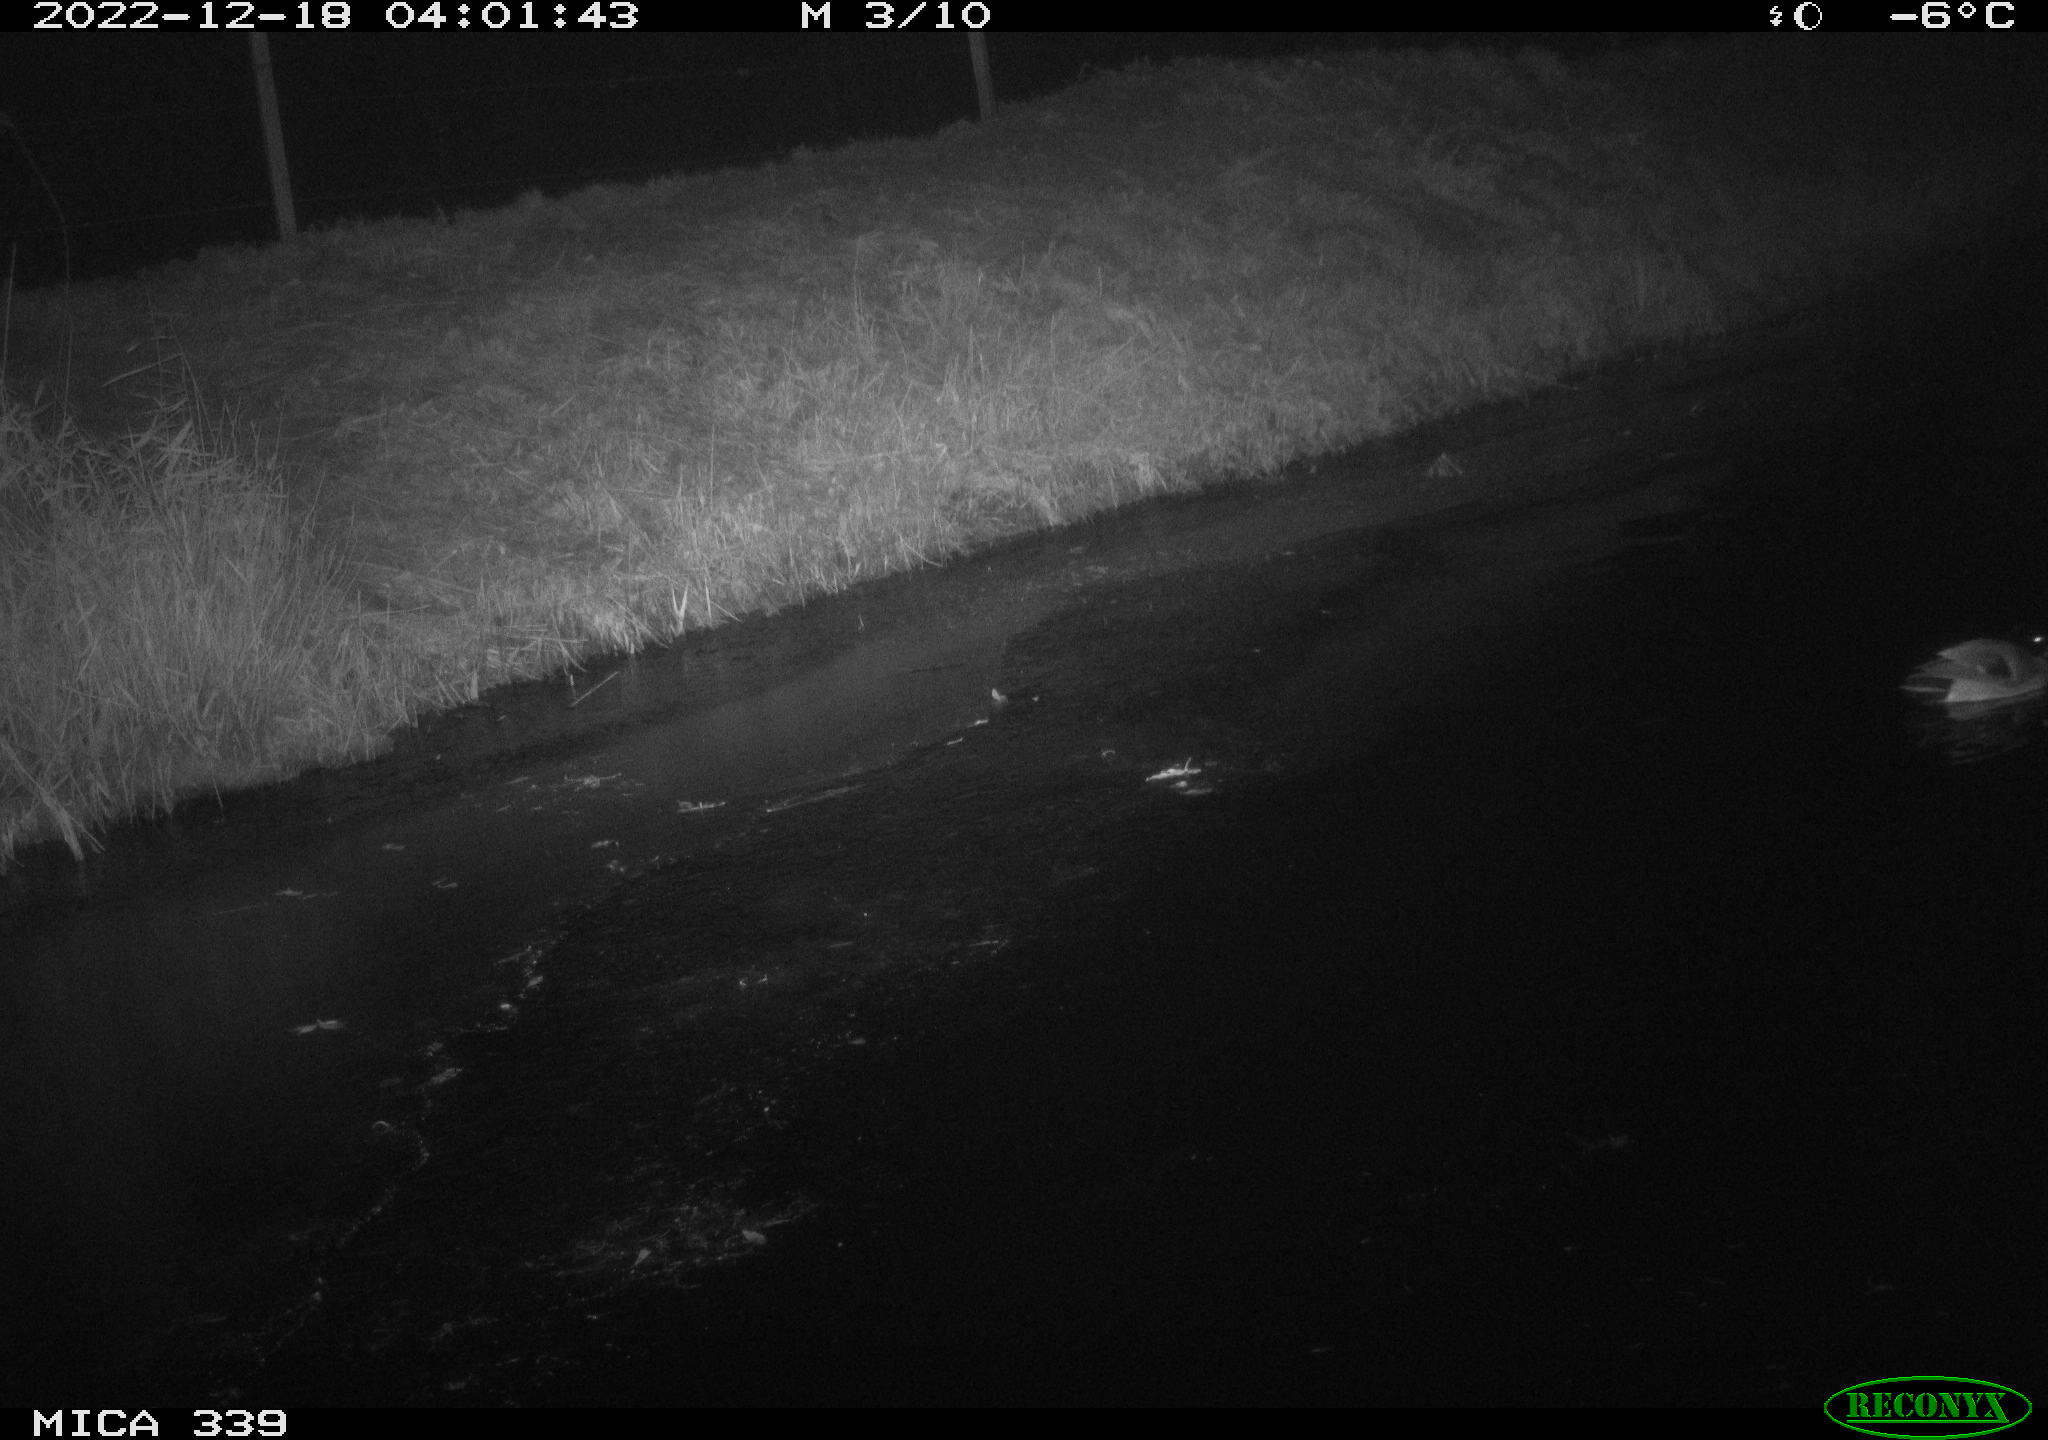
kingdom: Animalia
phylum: Chordata
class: Aves
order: Anseriformes
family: Anatidae
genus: Anas
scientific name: Anas
